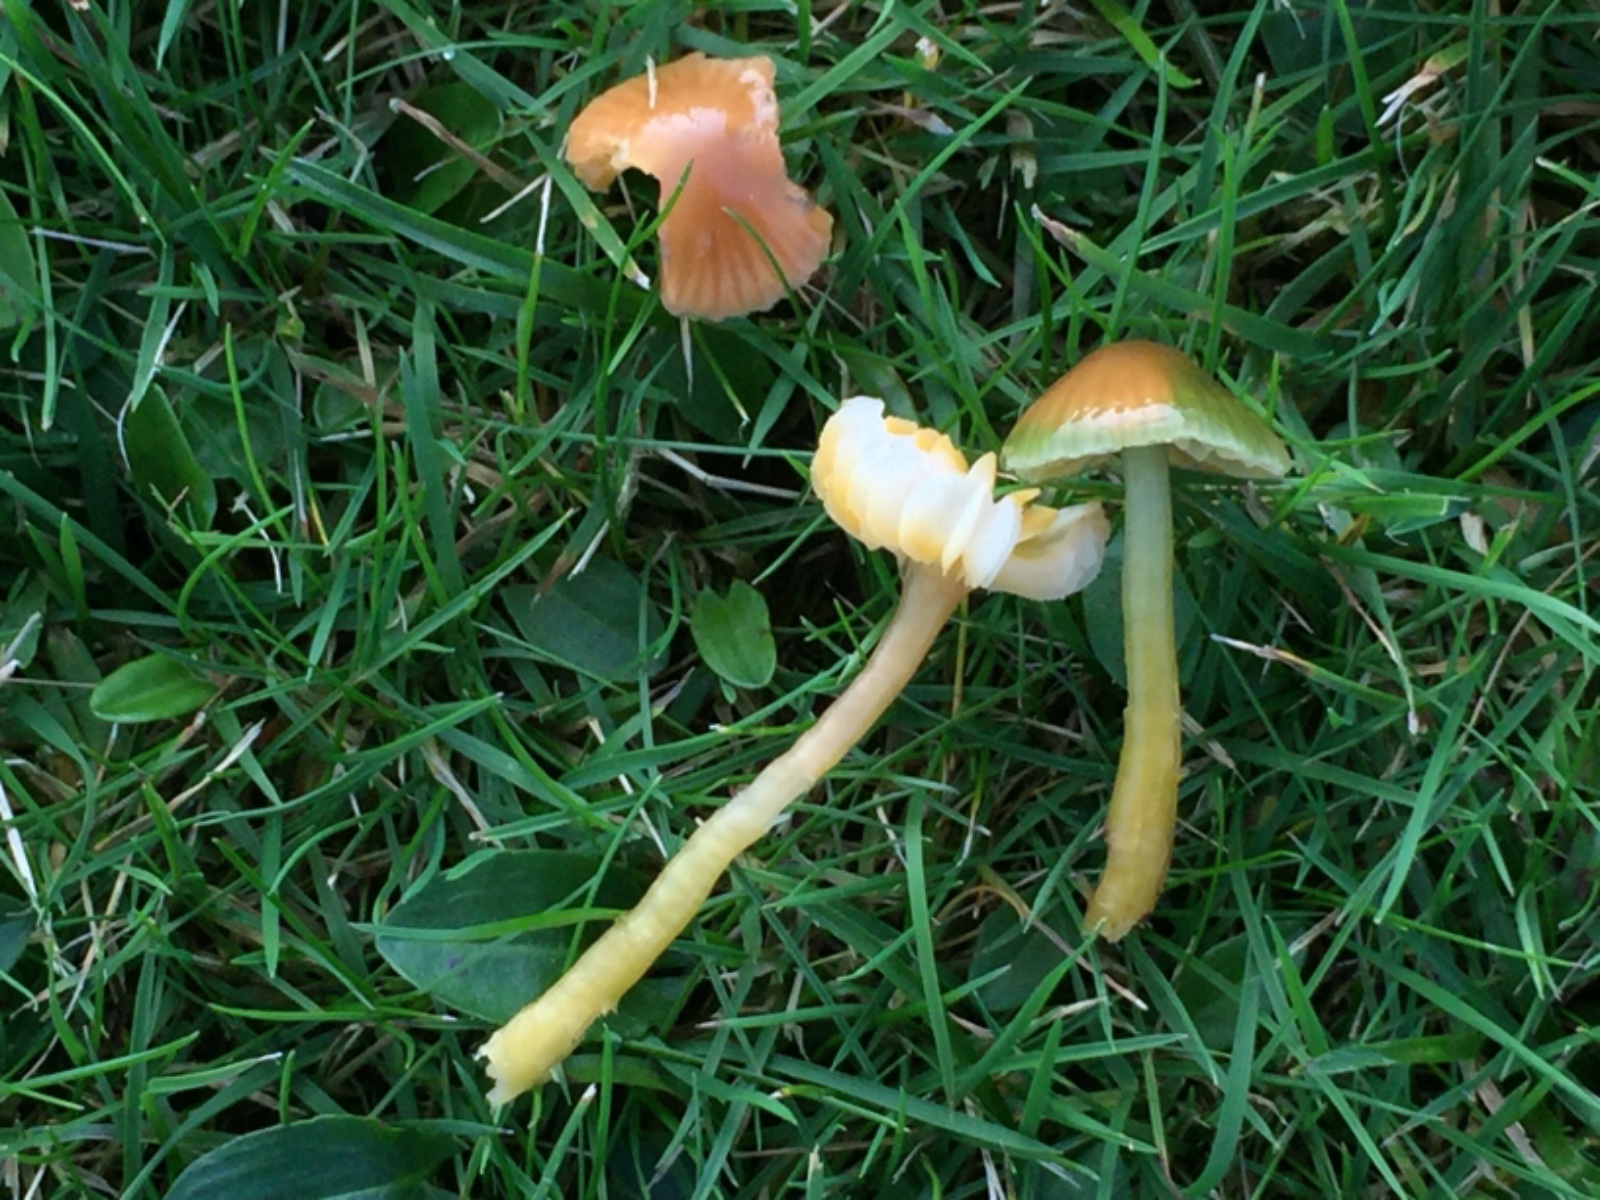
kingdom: Fungi
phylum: Basidiomycota
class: Agaricomycetes
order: Agaricales
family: Hygrophoraceae
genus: Gliophorus
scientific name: Gliophorus psittacinus
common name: papegøje-vokshat
